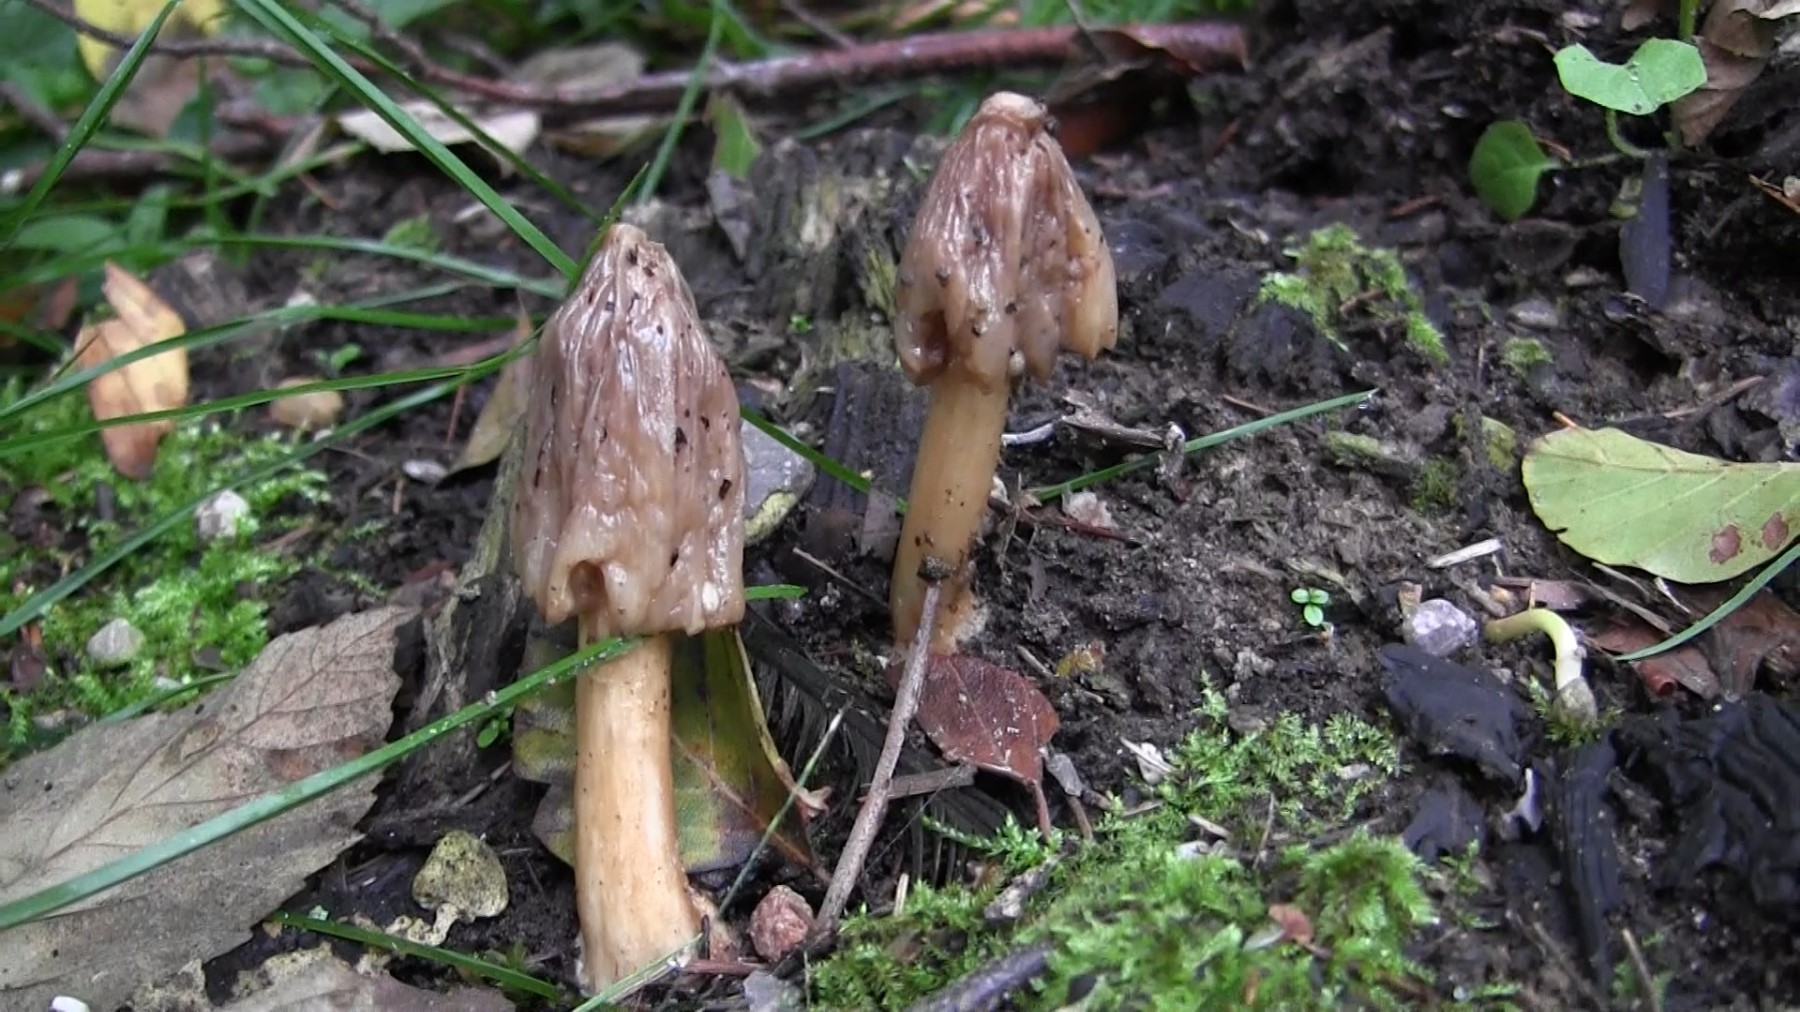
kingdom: Fungi
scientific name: Fungi
